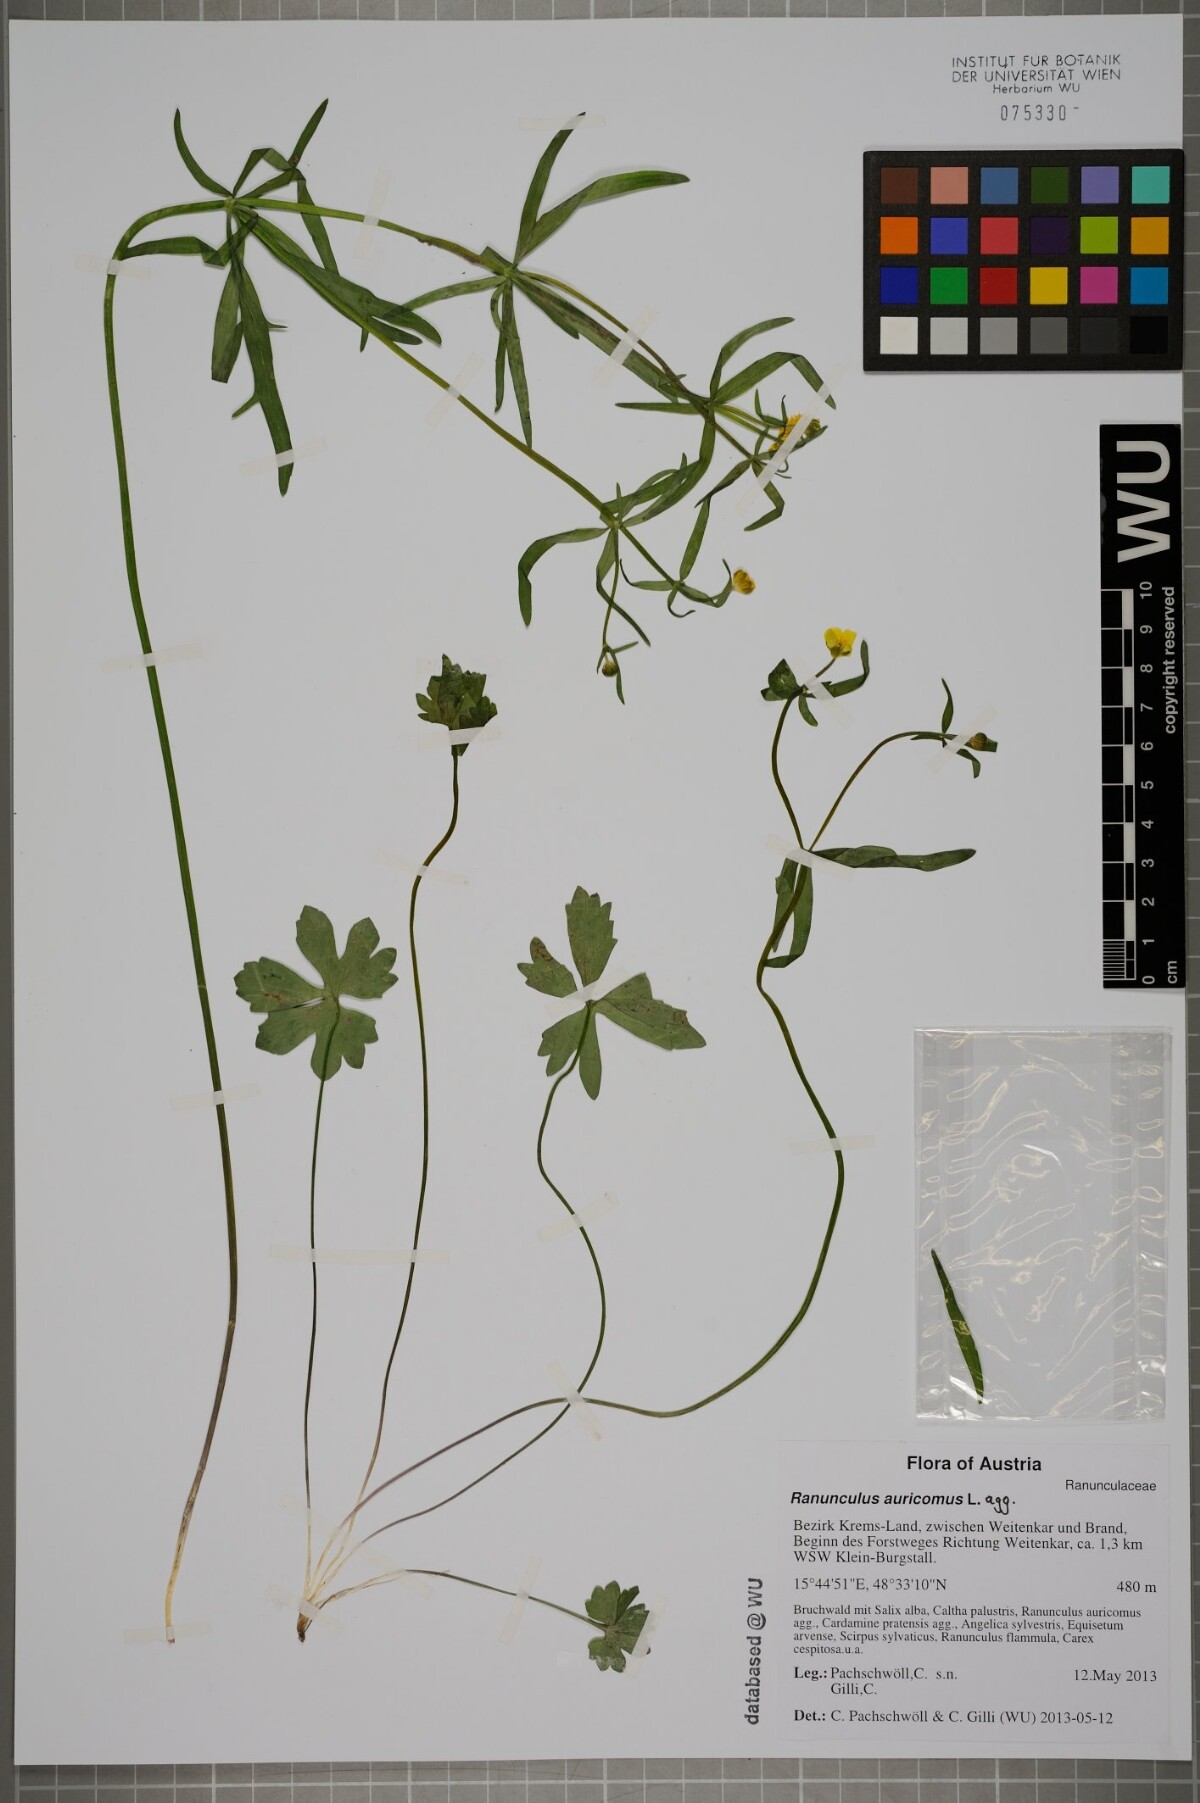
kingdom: Plantae
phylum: Tracheophyta
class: Magnoliopsida
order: Ranunculales
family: Ranunculaceae
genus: Ranunculus
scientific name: Ranunculus auricomus
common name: Goldilocks buttercup
